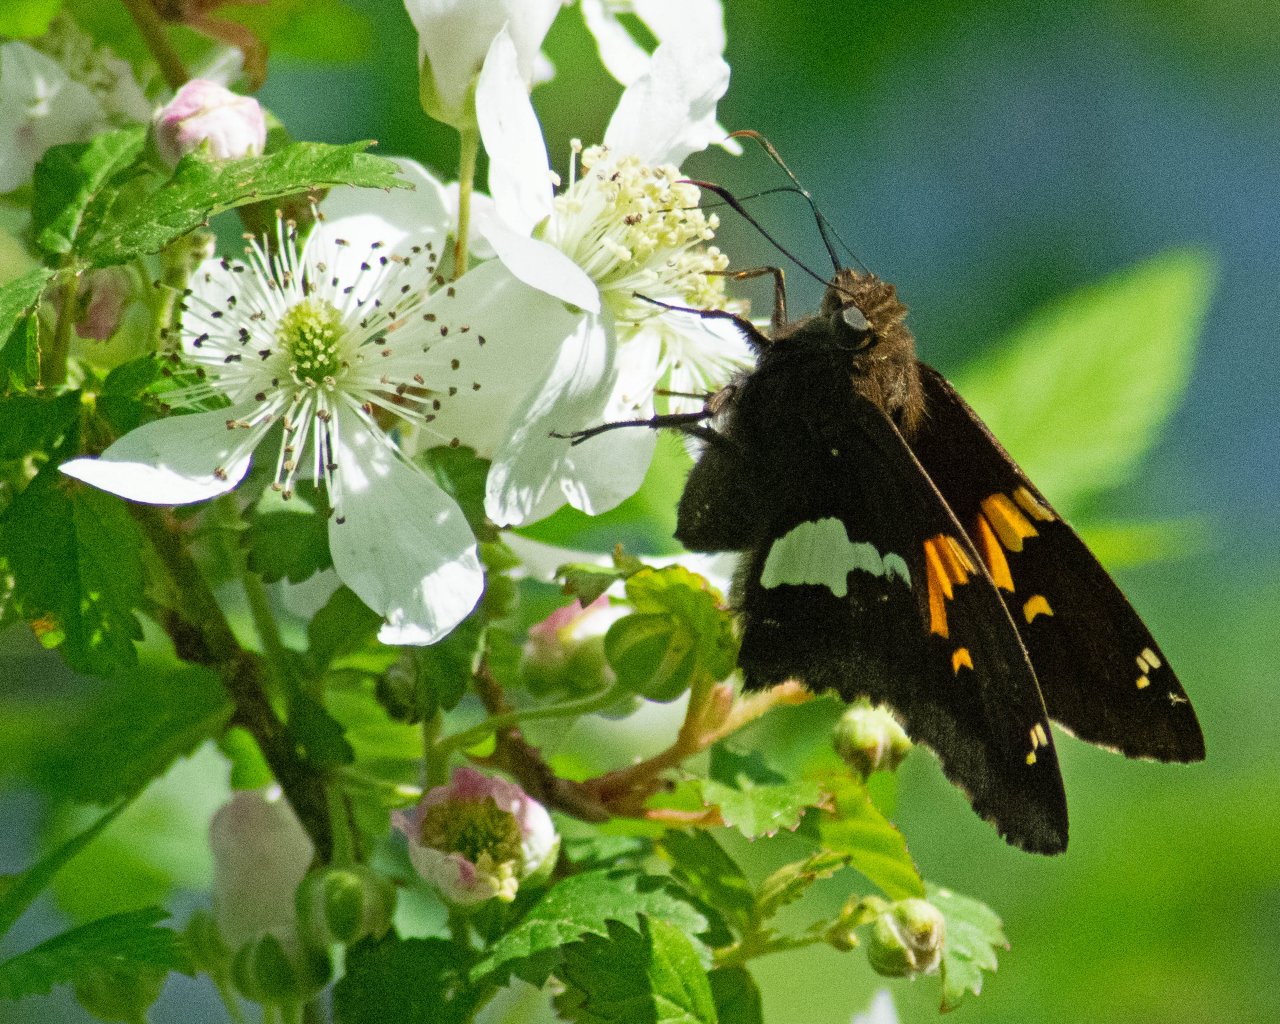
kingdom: Animalia
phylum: Arthropoda
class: Insecta
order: Lepidoptera
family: Hesperiidae
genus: Epargyreus
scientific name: Epargyreus clarus
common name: Silver-spotted Skipper
